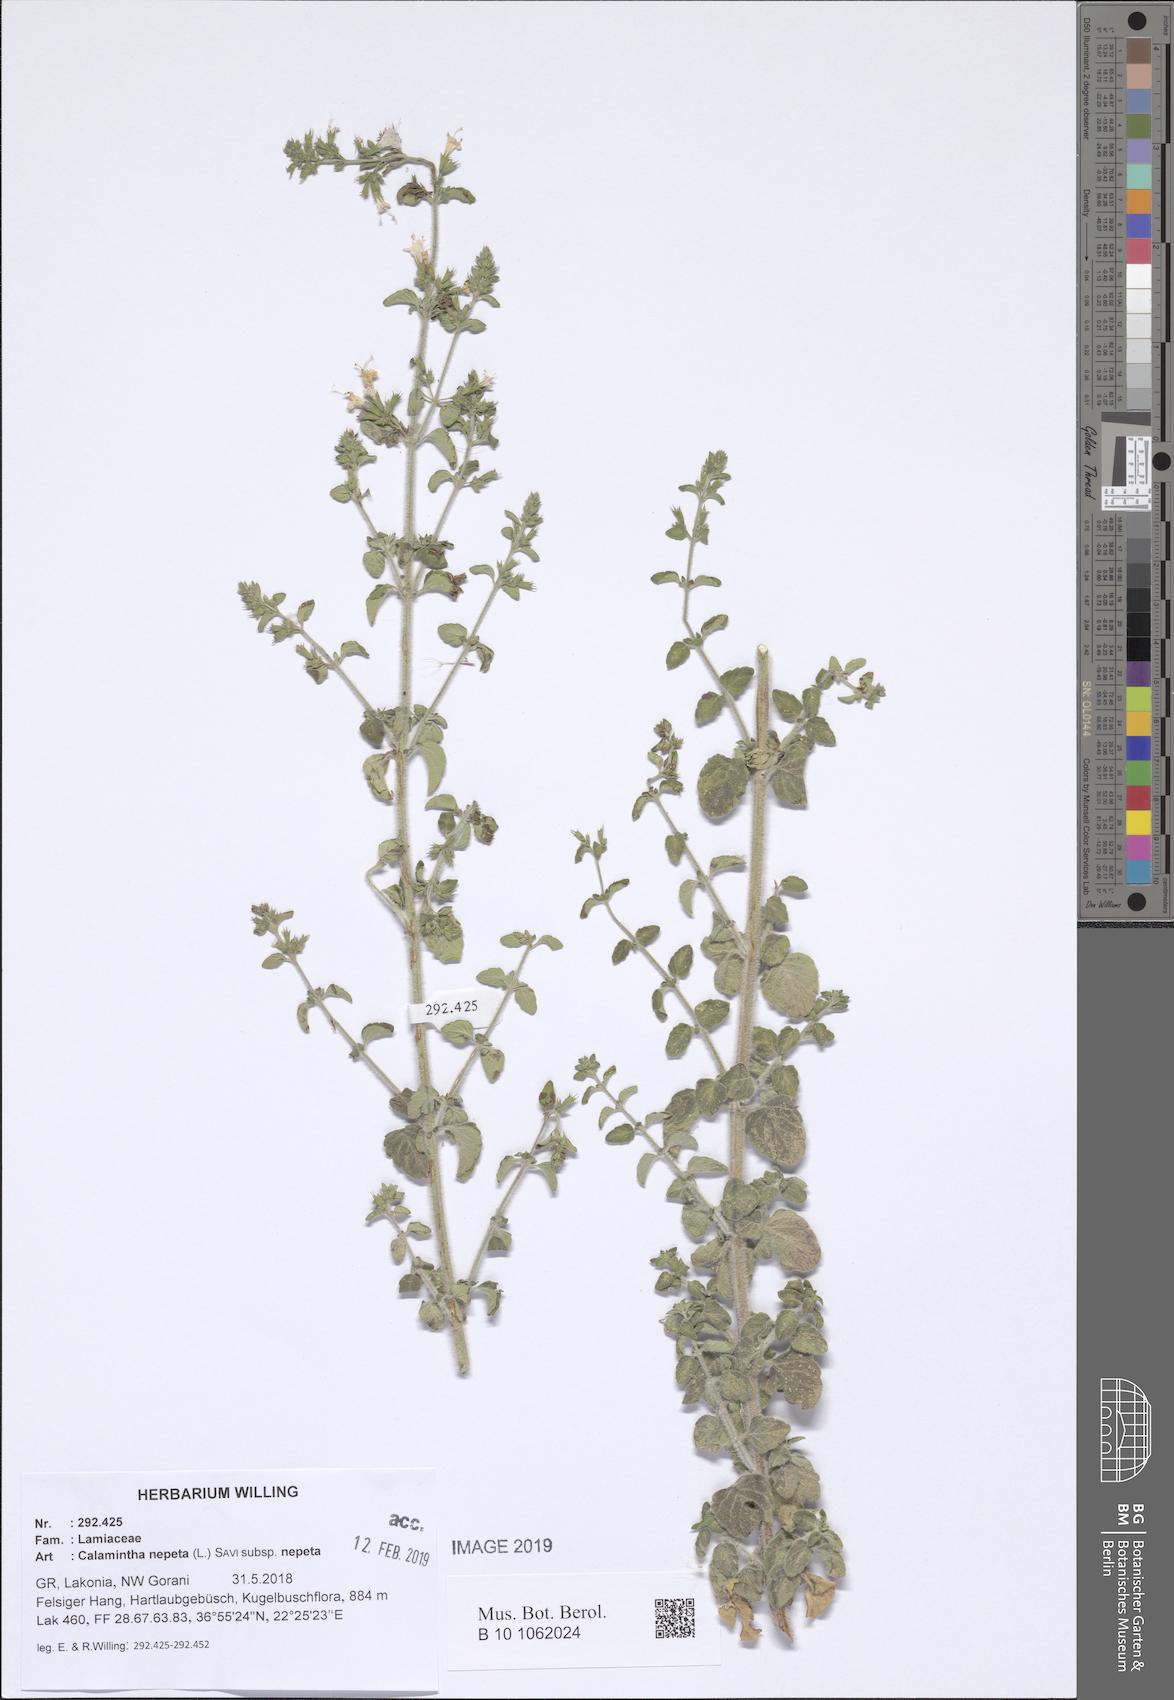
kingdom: Plantae
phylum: Tracheophyta
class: Magnoliopsida
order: Lamiales
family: Lamiaceae
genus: Clinopodium
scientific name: Clinopodium nepeta
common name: Lesser calamint
